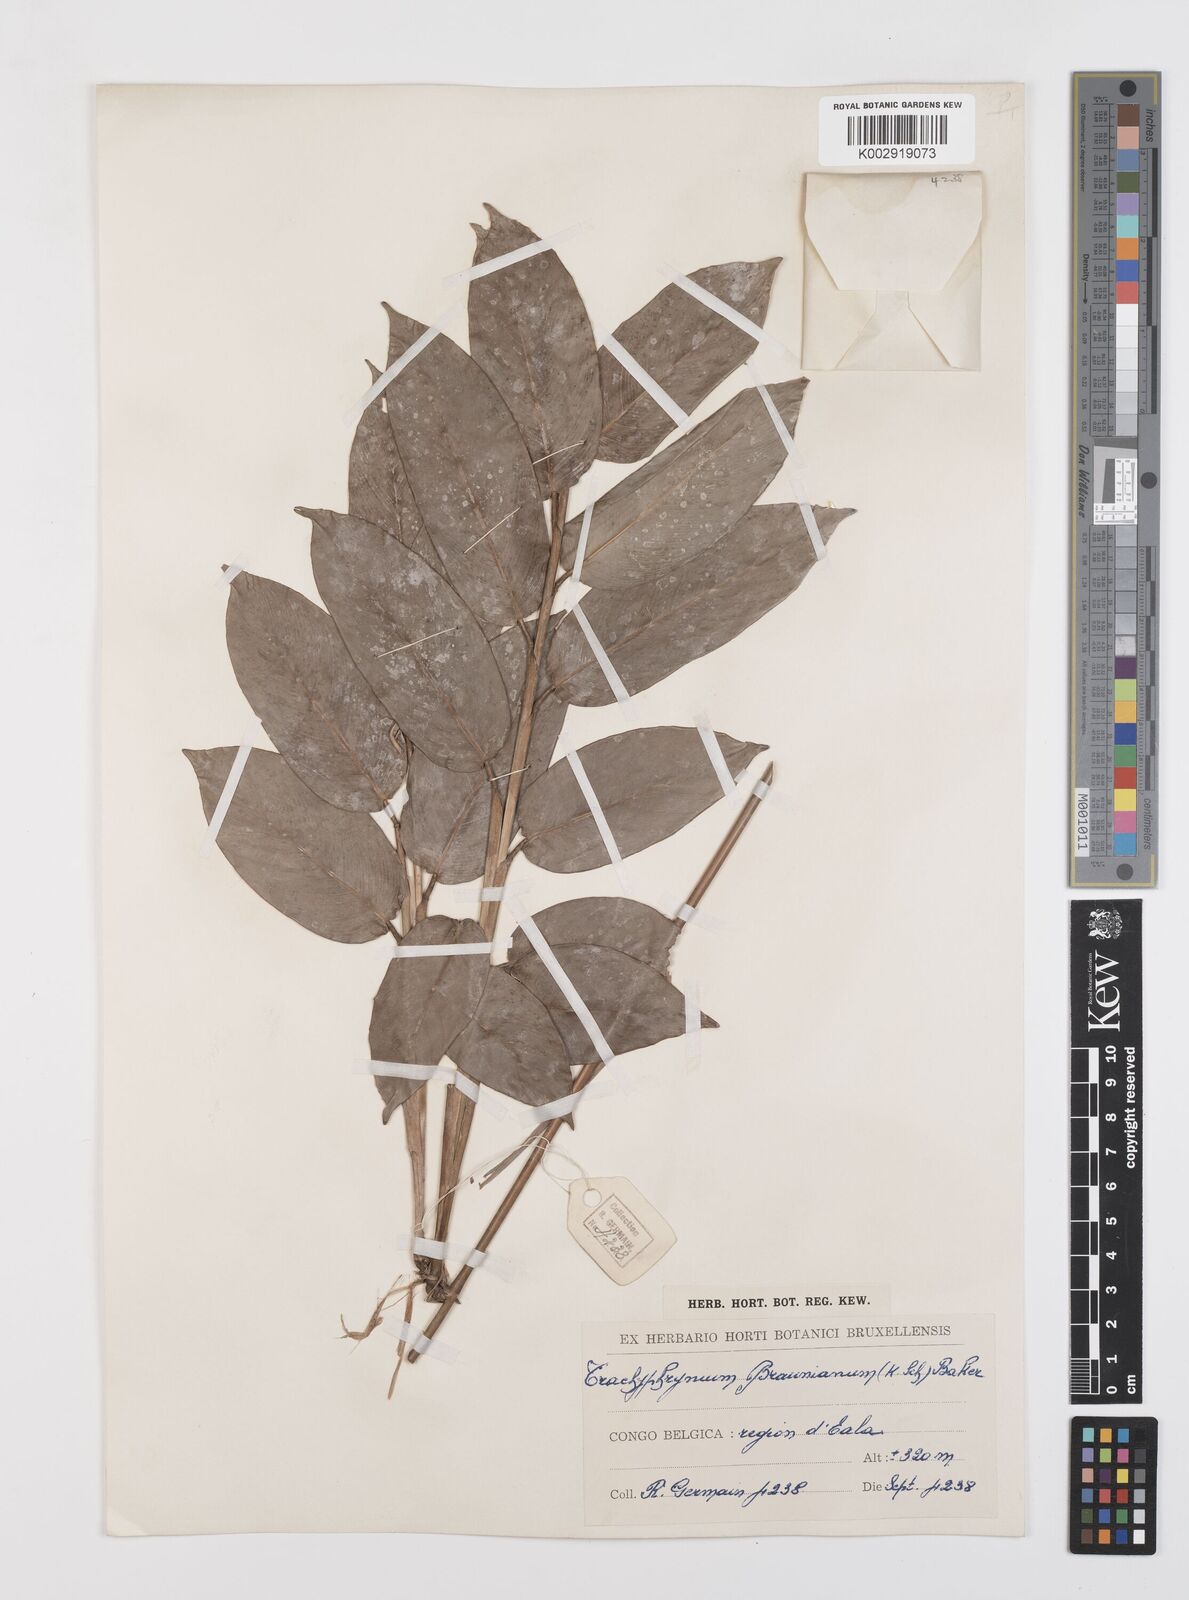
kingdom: Plantae
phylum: Tracheophyta
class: Liliopsida
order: Zingiberales
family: Marantaceae
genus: Trachyphrynium
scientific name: Trachyphrynium braunianum
